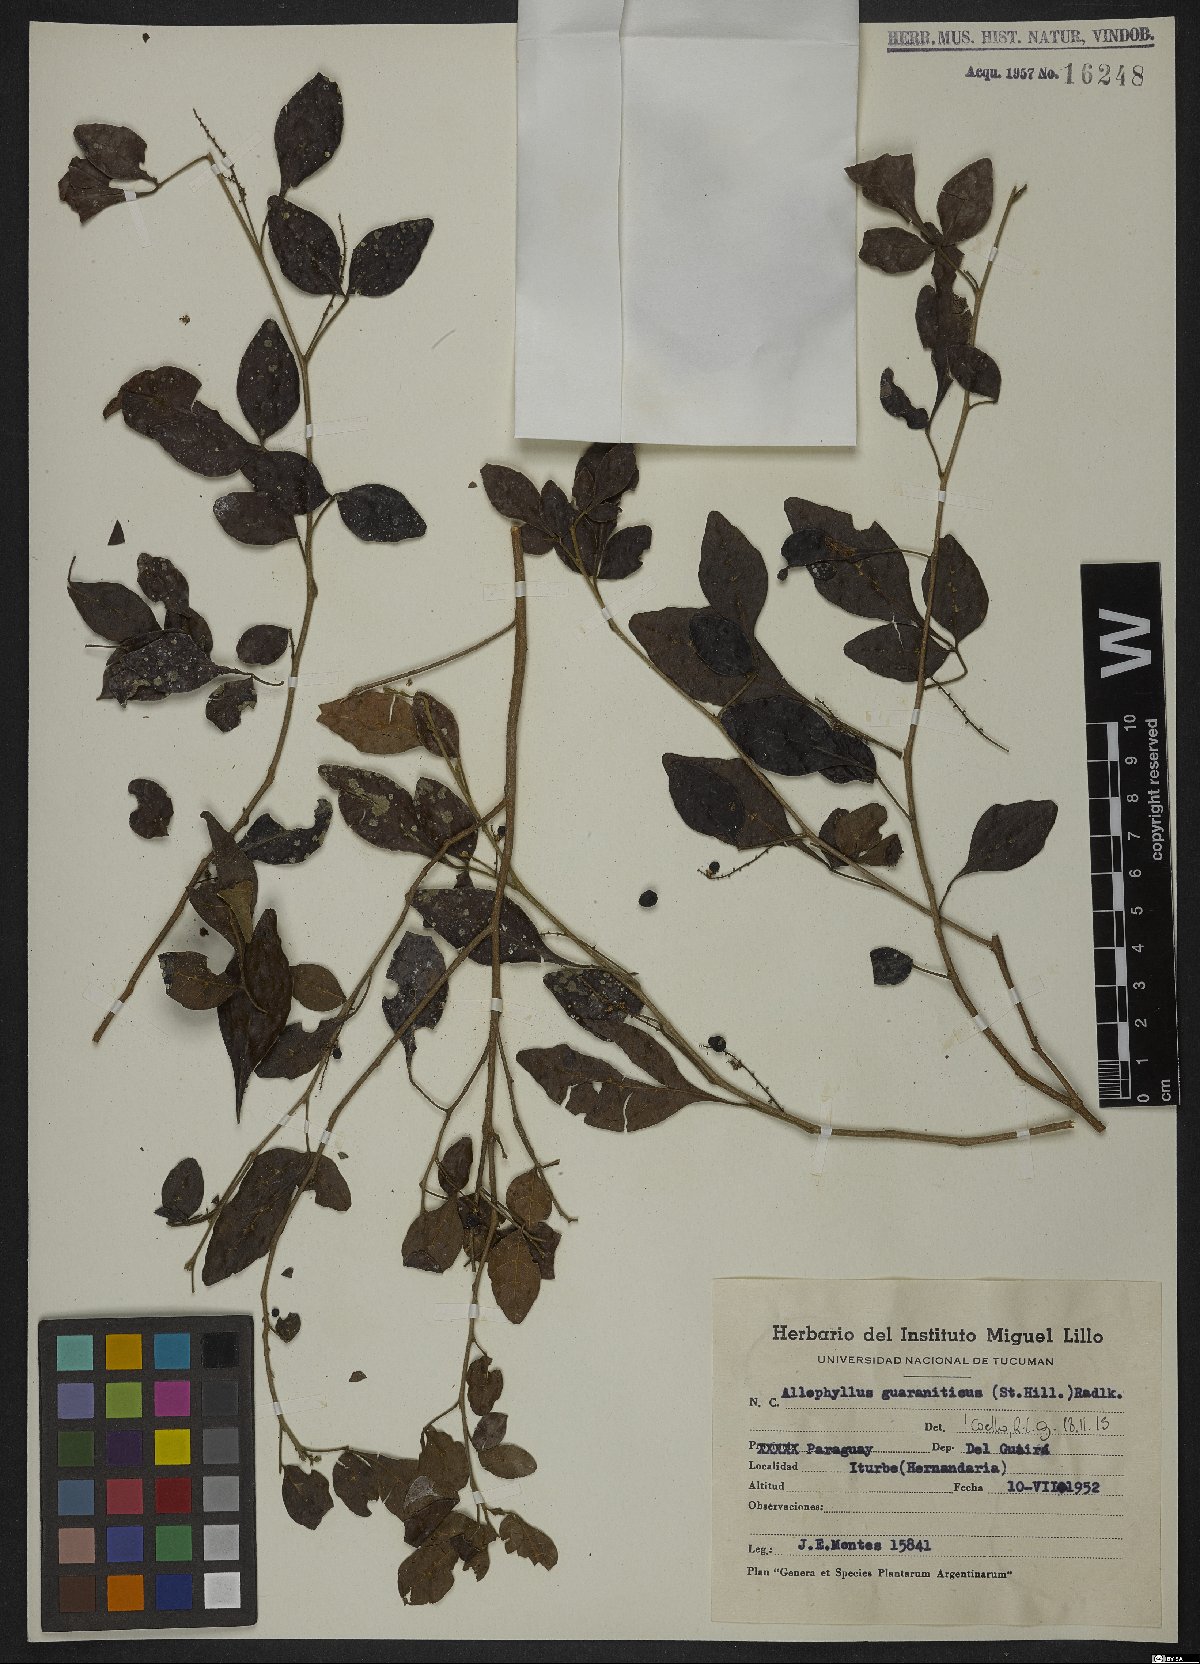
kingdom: Plantae
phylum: Tracheophyta
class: Magnoliopsida
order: Sapindales
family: Sapindaceae
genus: Allophylus
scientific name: Allophylus guaraniticus
